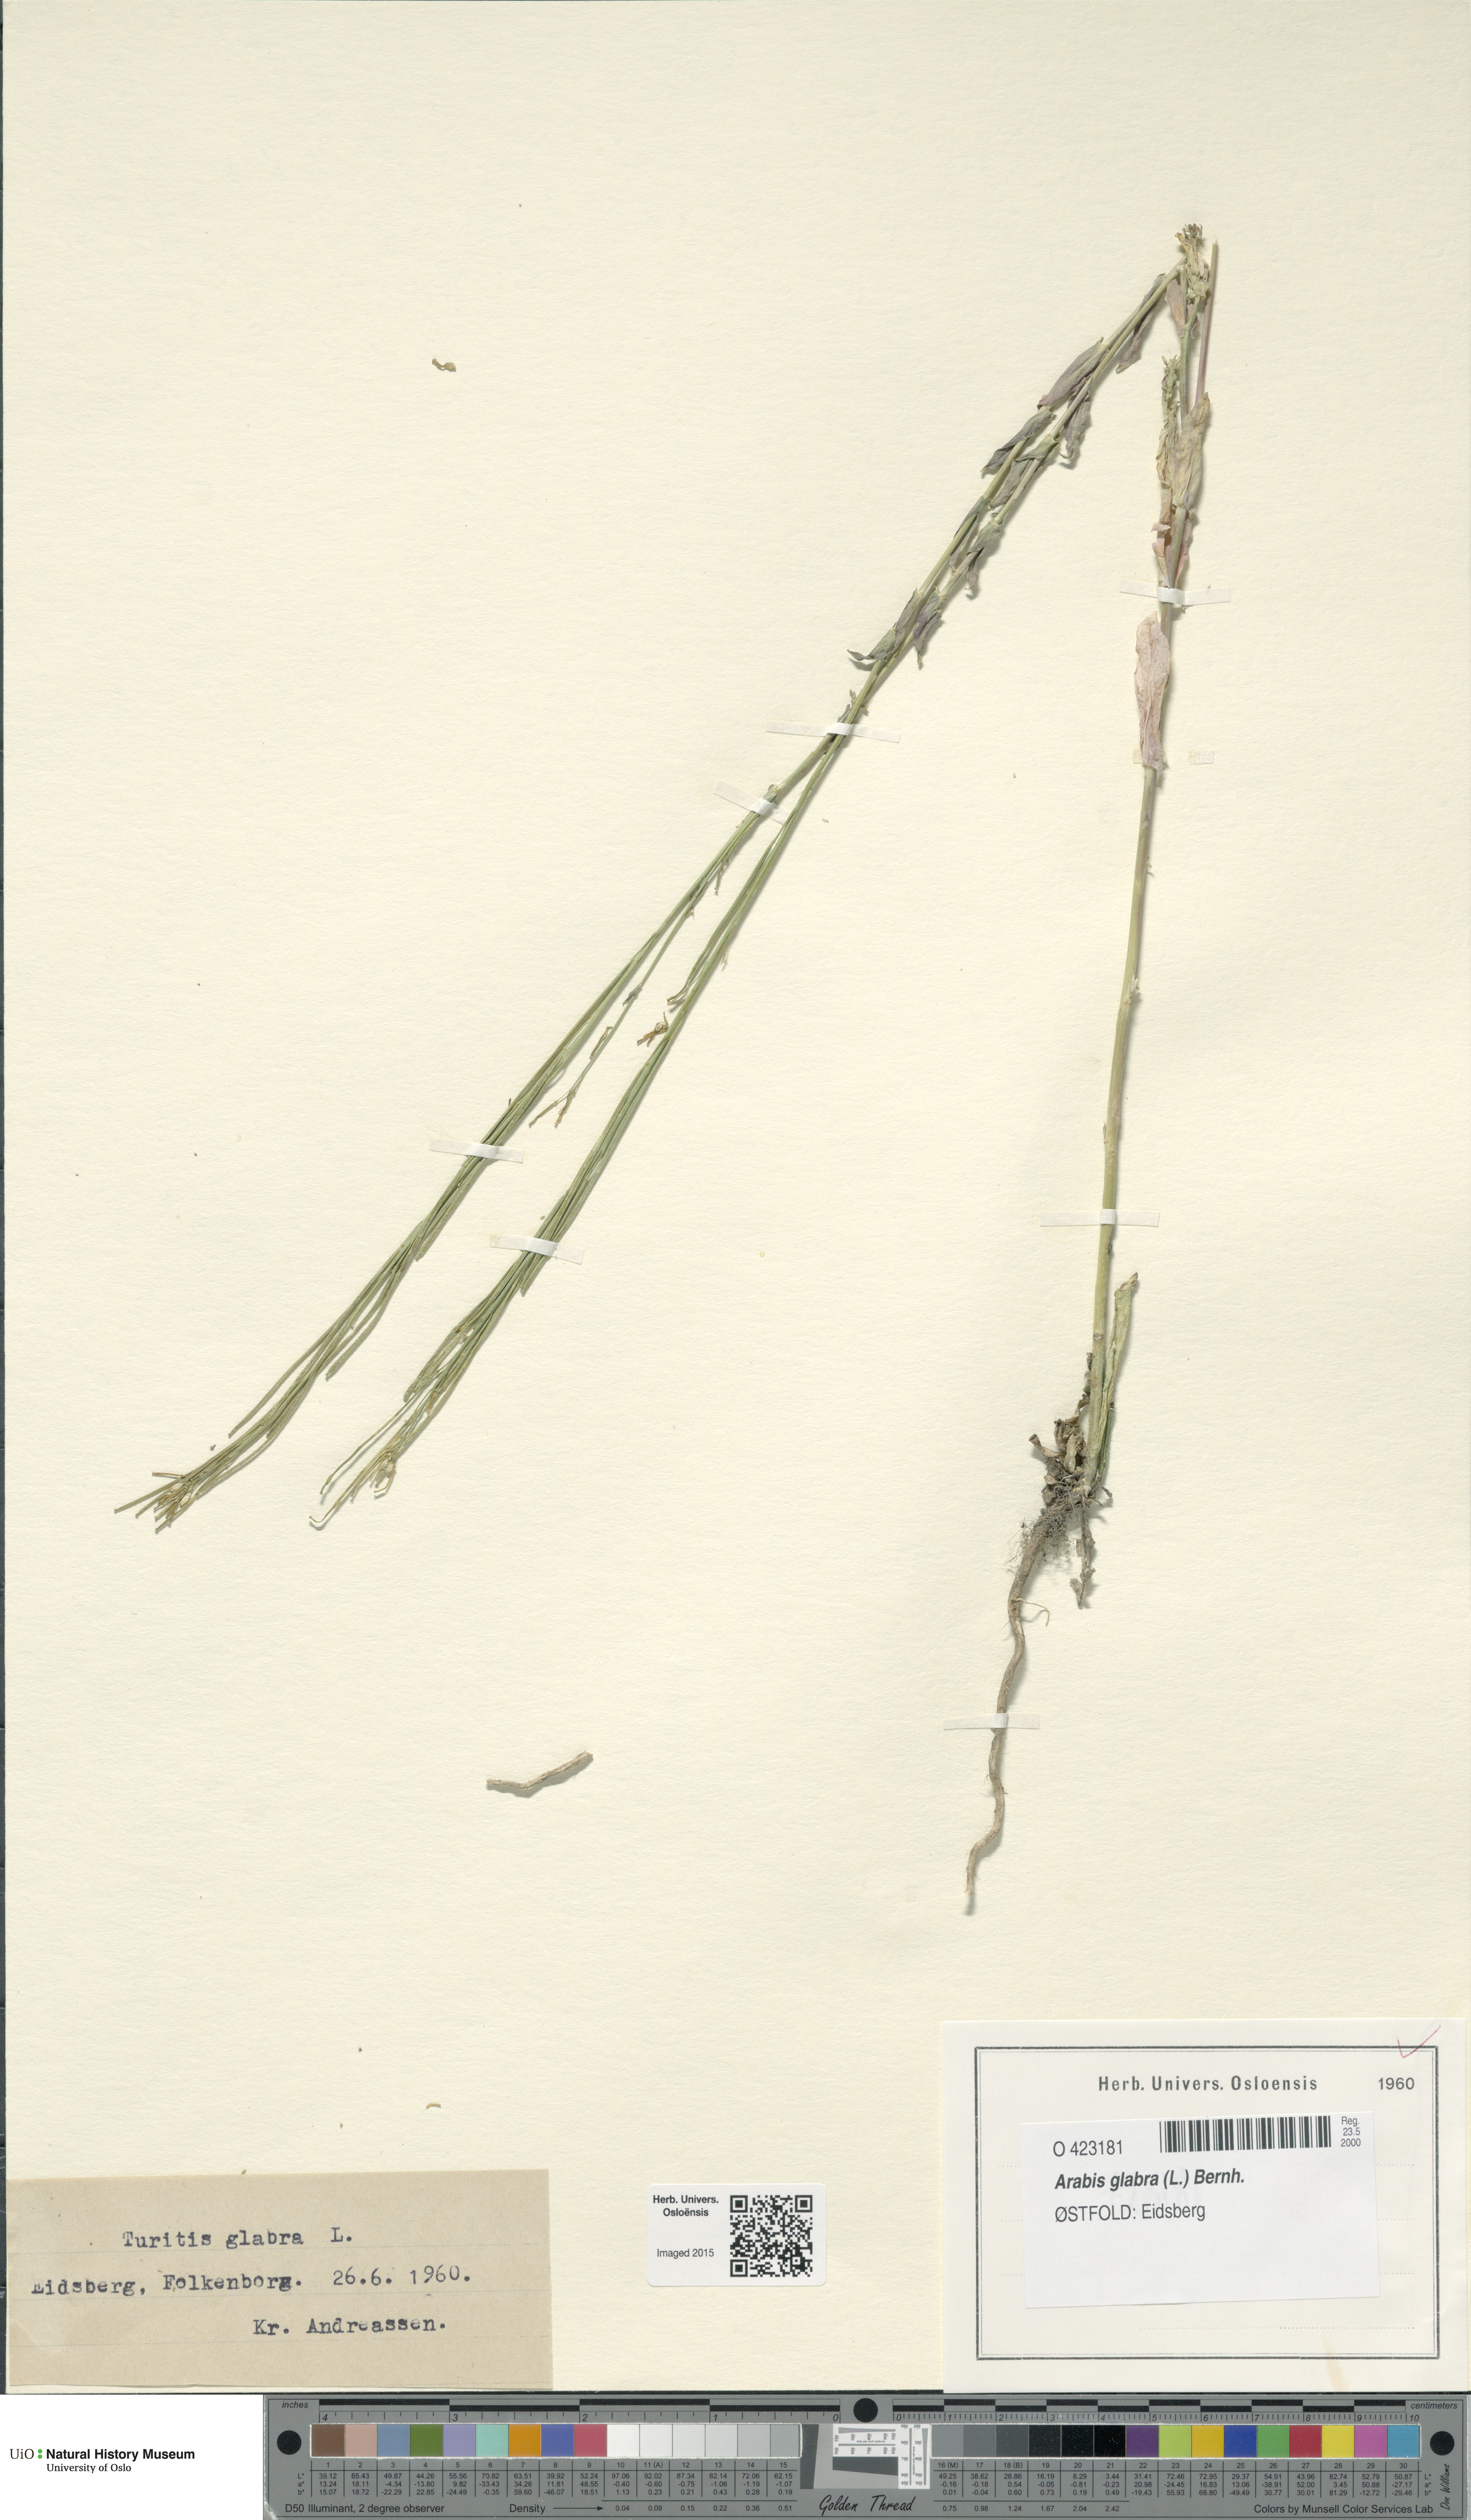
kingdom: Plantae
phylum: Tracheophyta
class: Magnoliopsida
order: Brassicales
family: Brassicaceae
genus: Turritis
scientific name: Turritis glabra
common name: Tower rockcress
